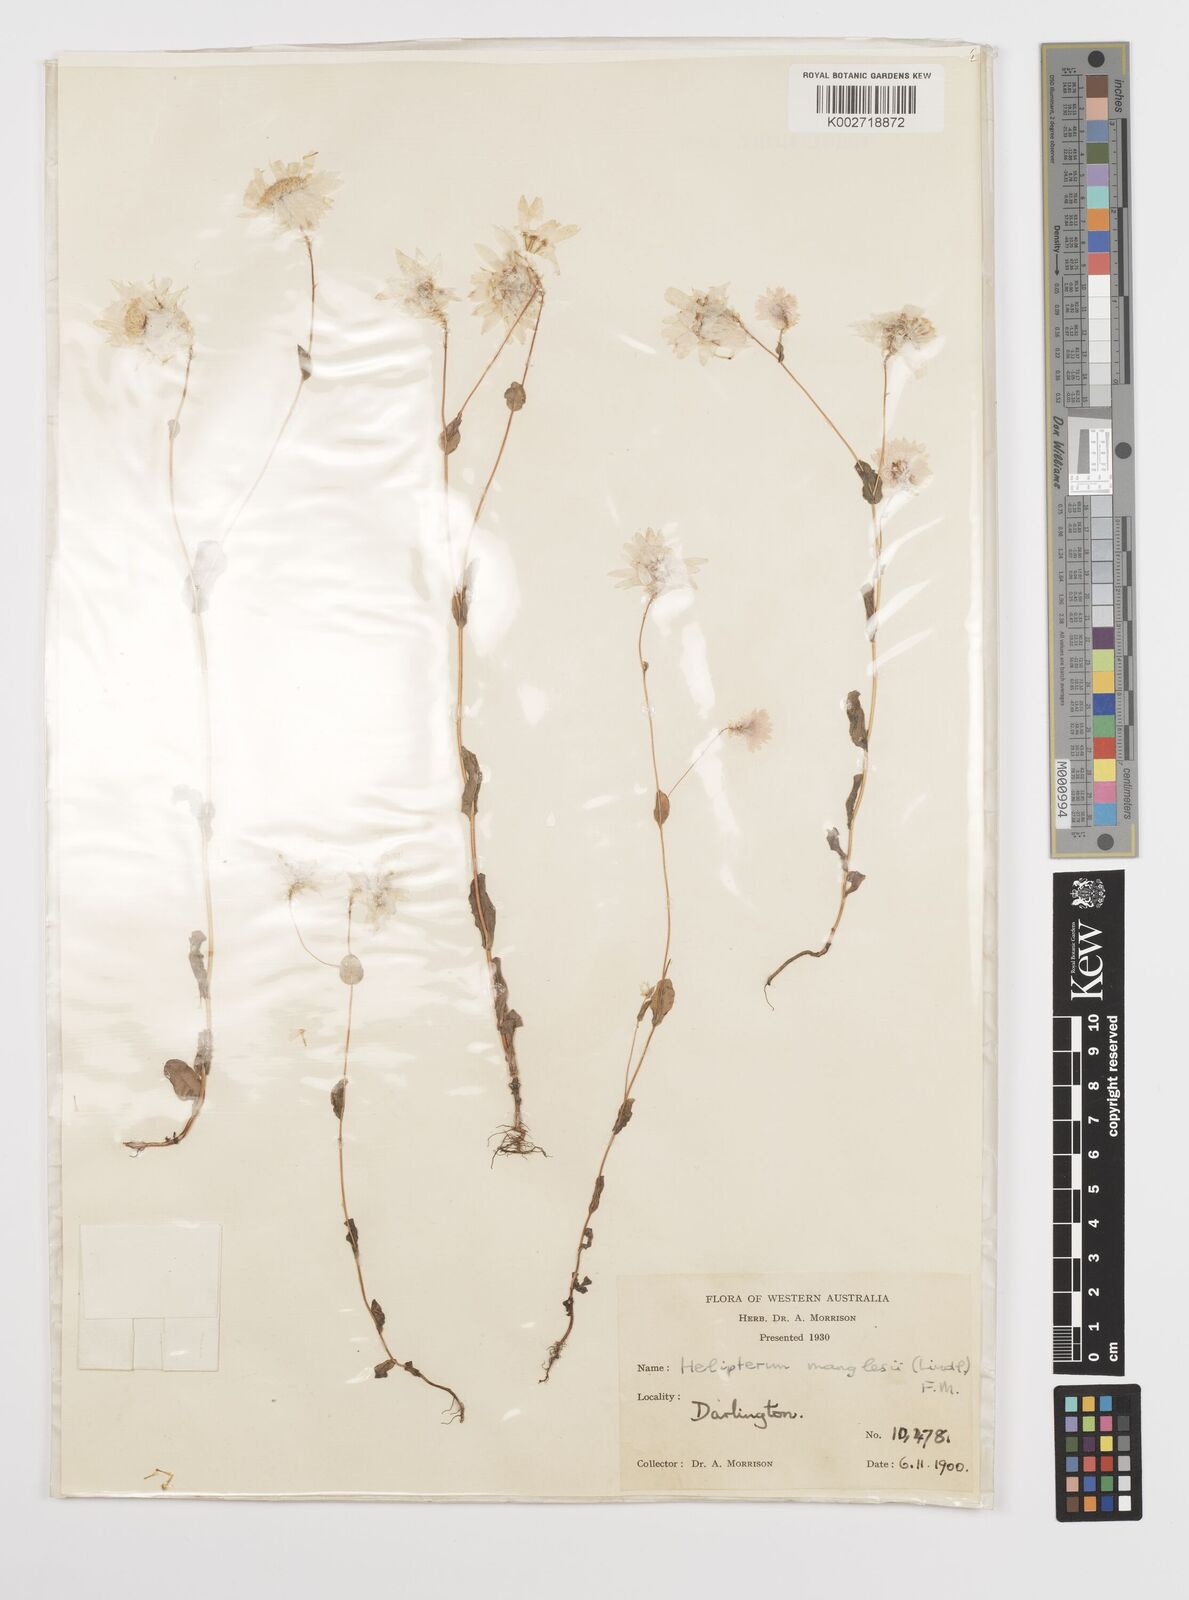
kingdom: Plantae
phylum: Tracheophyta
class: Magnoliopsida
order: Asterales
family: Asteraceae
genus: Rhodanthe
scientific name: Rhodanthe manglesii
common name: Pink sunray
